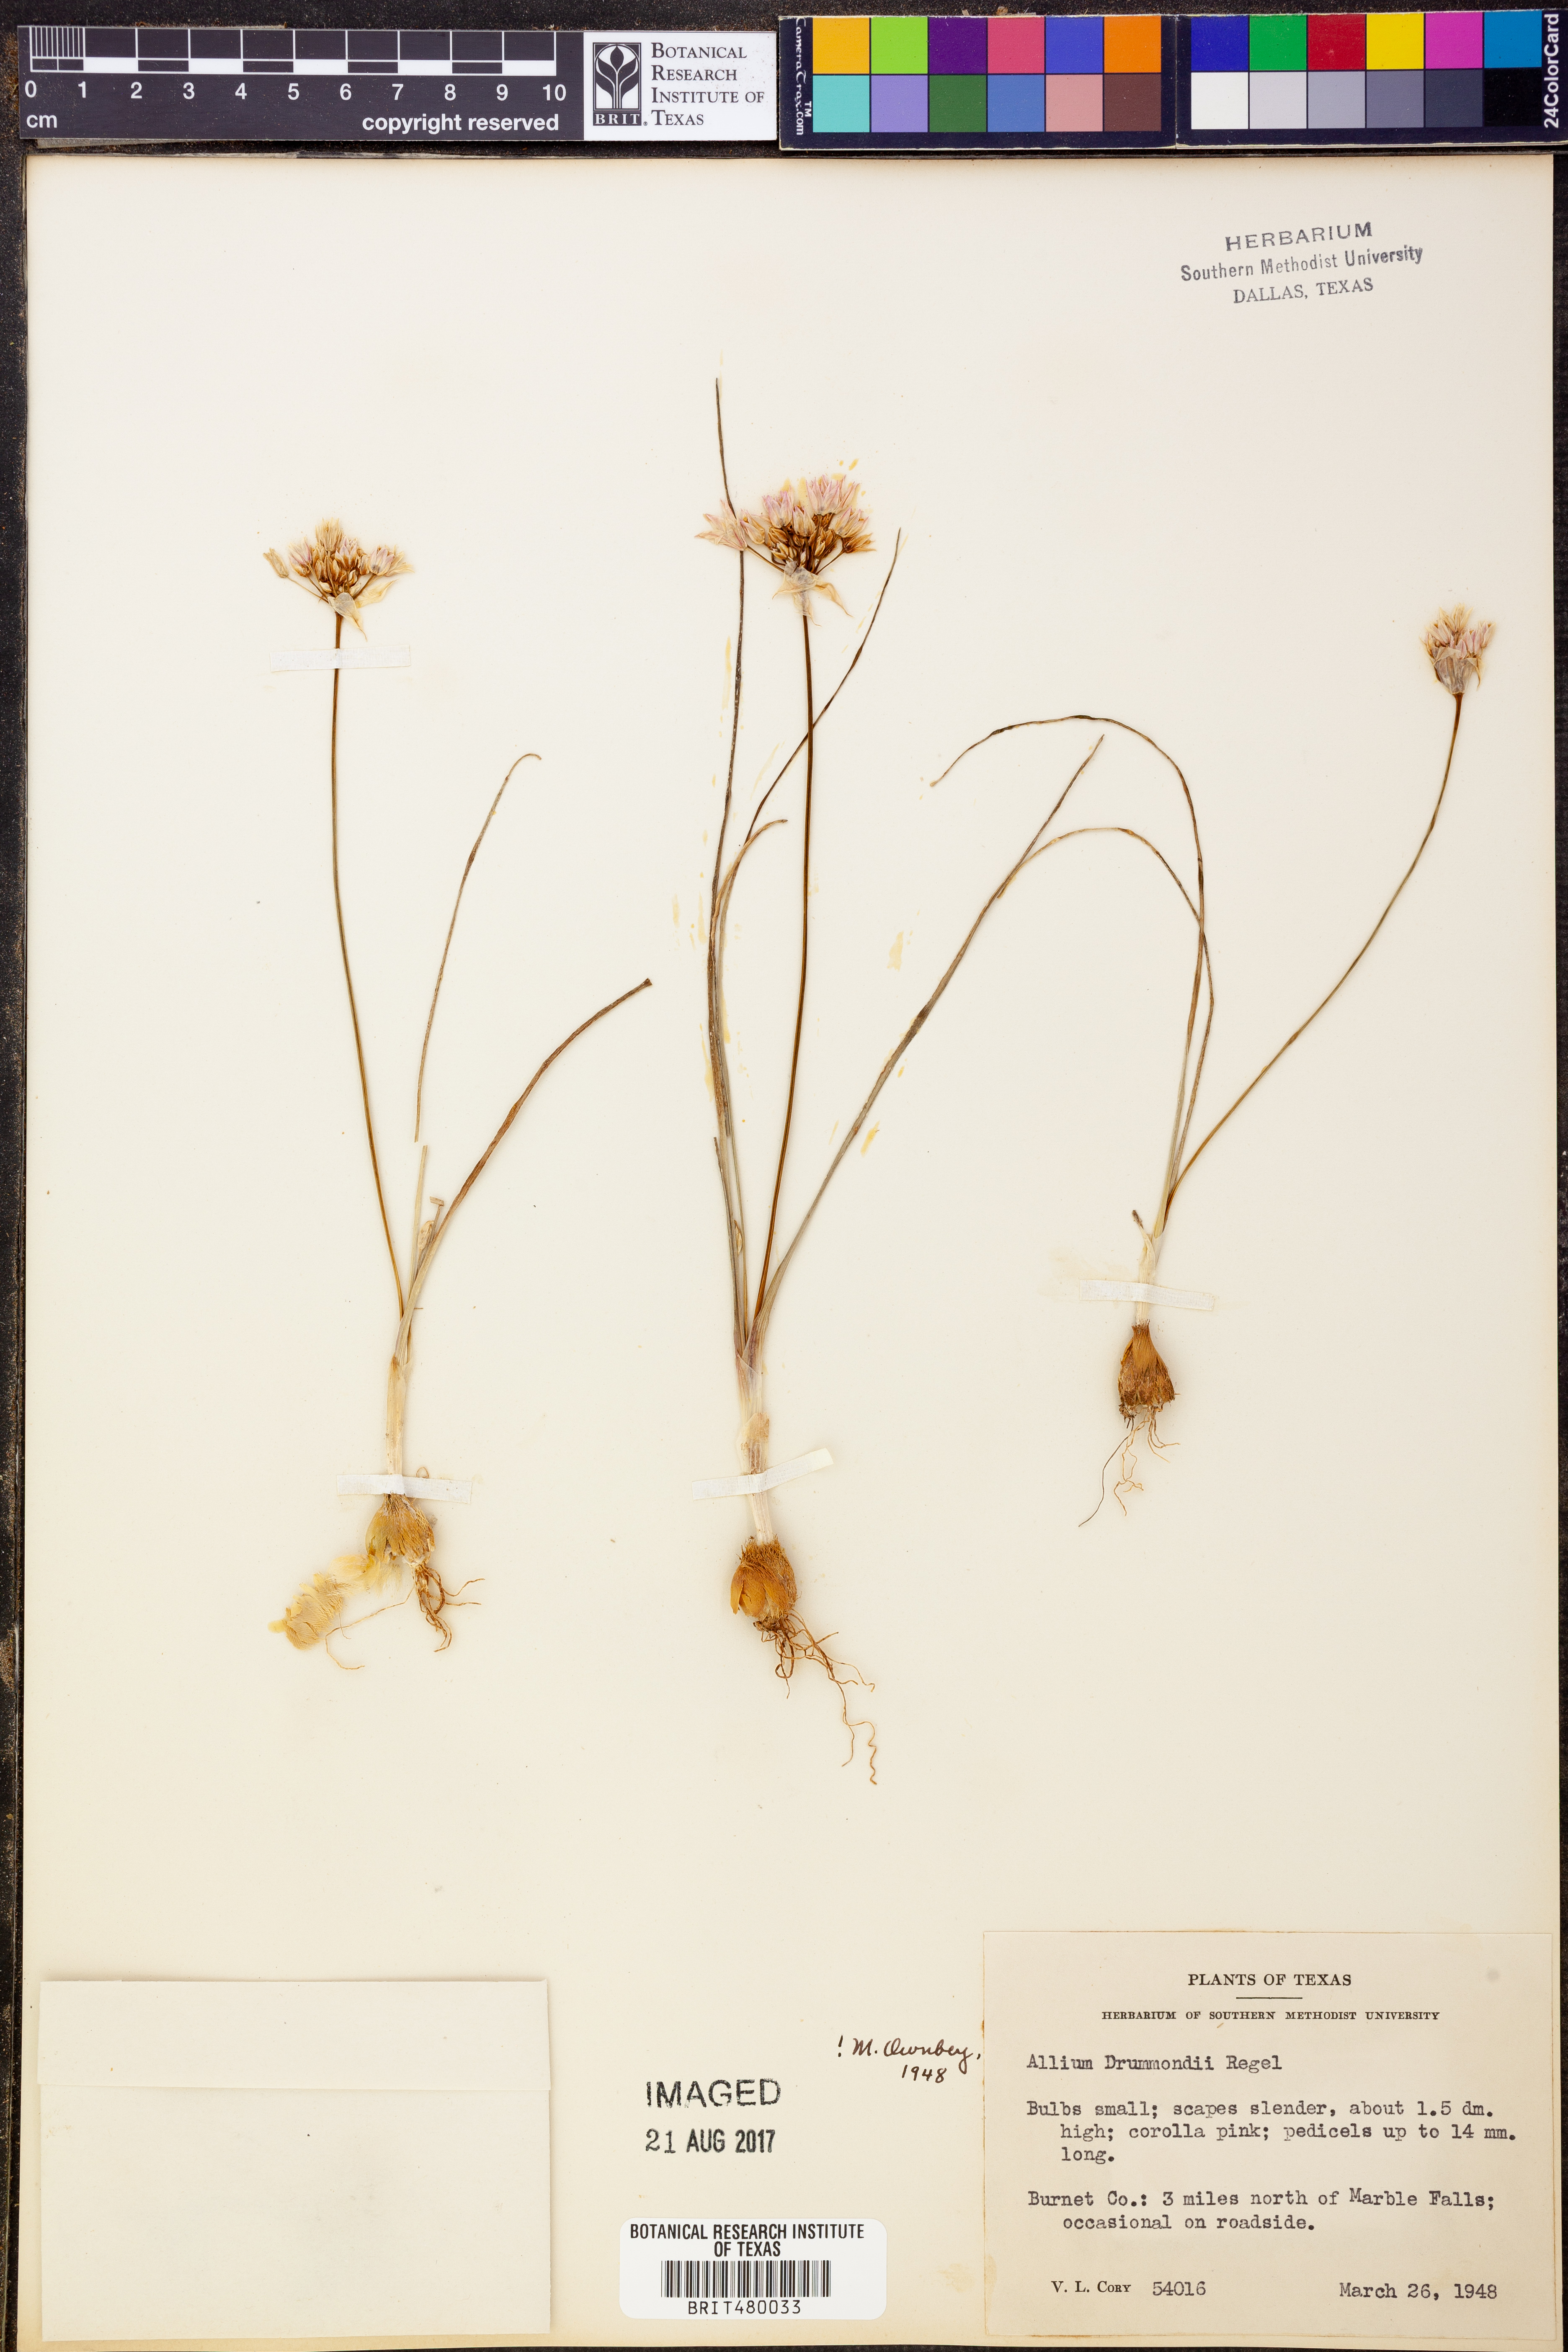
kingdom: Plantae
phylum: Tracheophyta
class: Liliopsida
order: Asparagales
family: Amaryllidaceae
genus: Allium
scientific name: Allium drummondii
